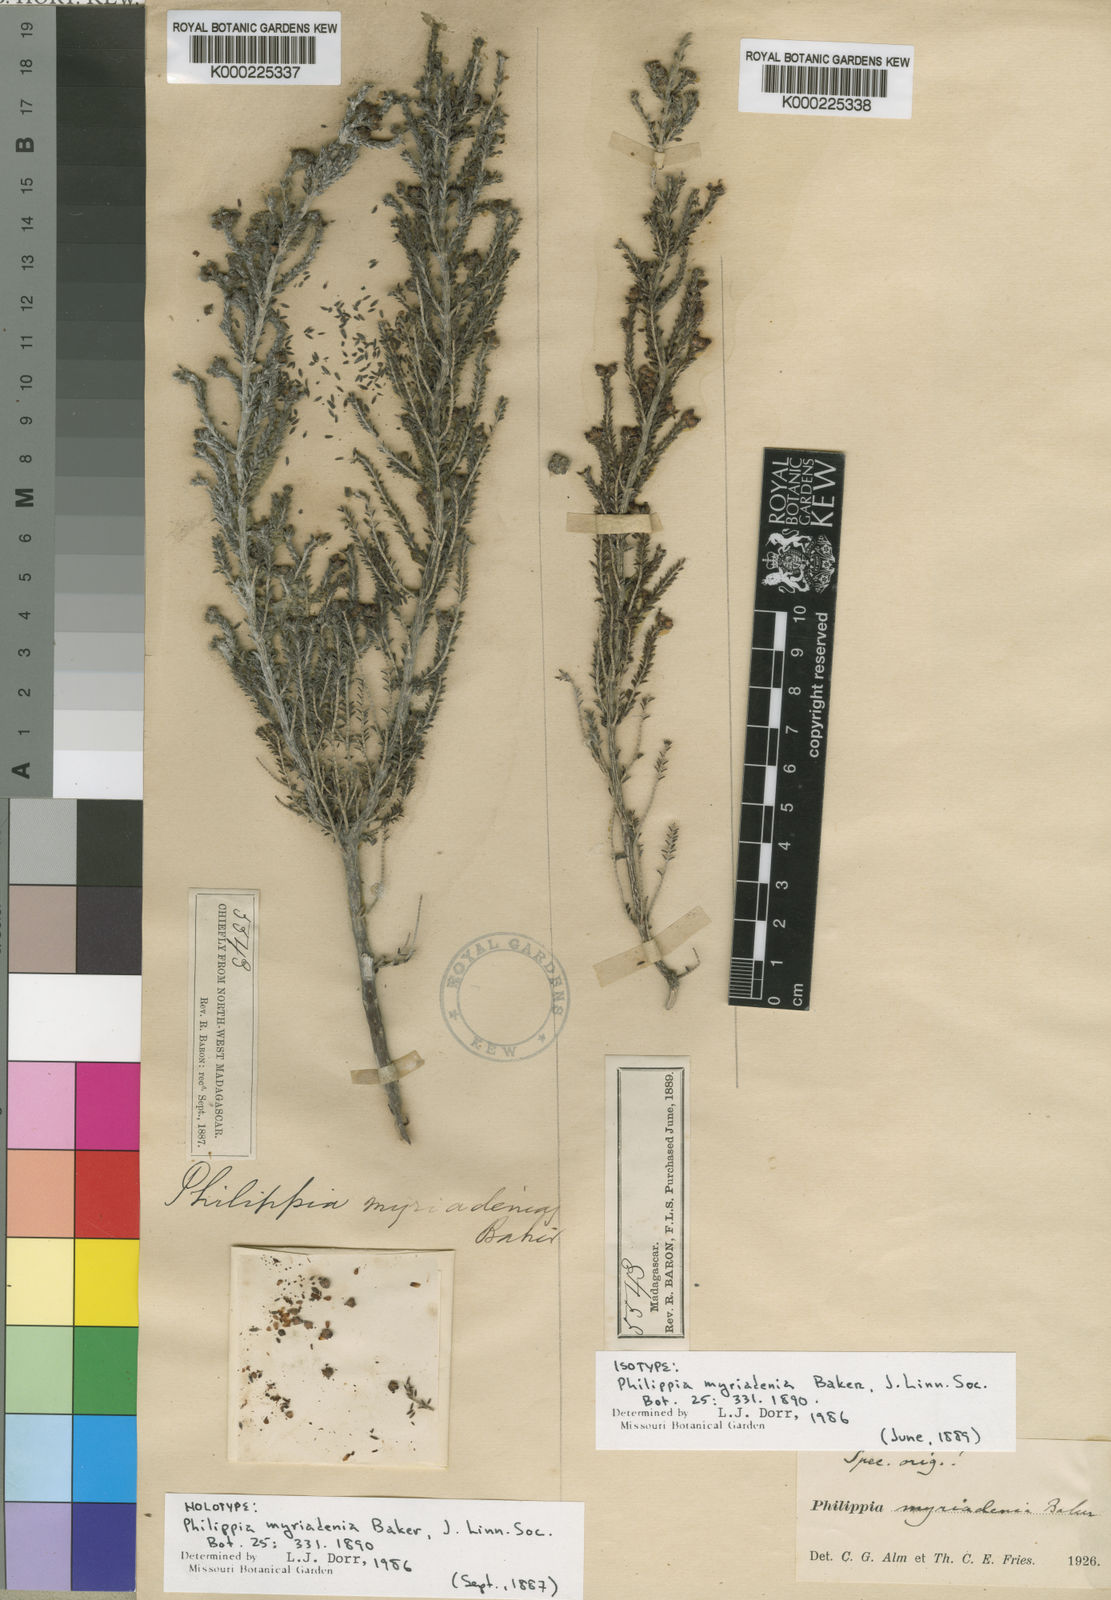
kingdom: Plantae
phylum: Tracheophyta
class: Magnoliopsida
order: Ericales
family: Ericaceae
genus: Erica
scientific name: Erica myriadenia
